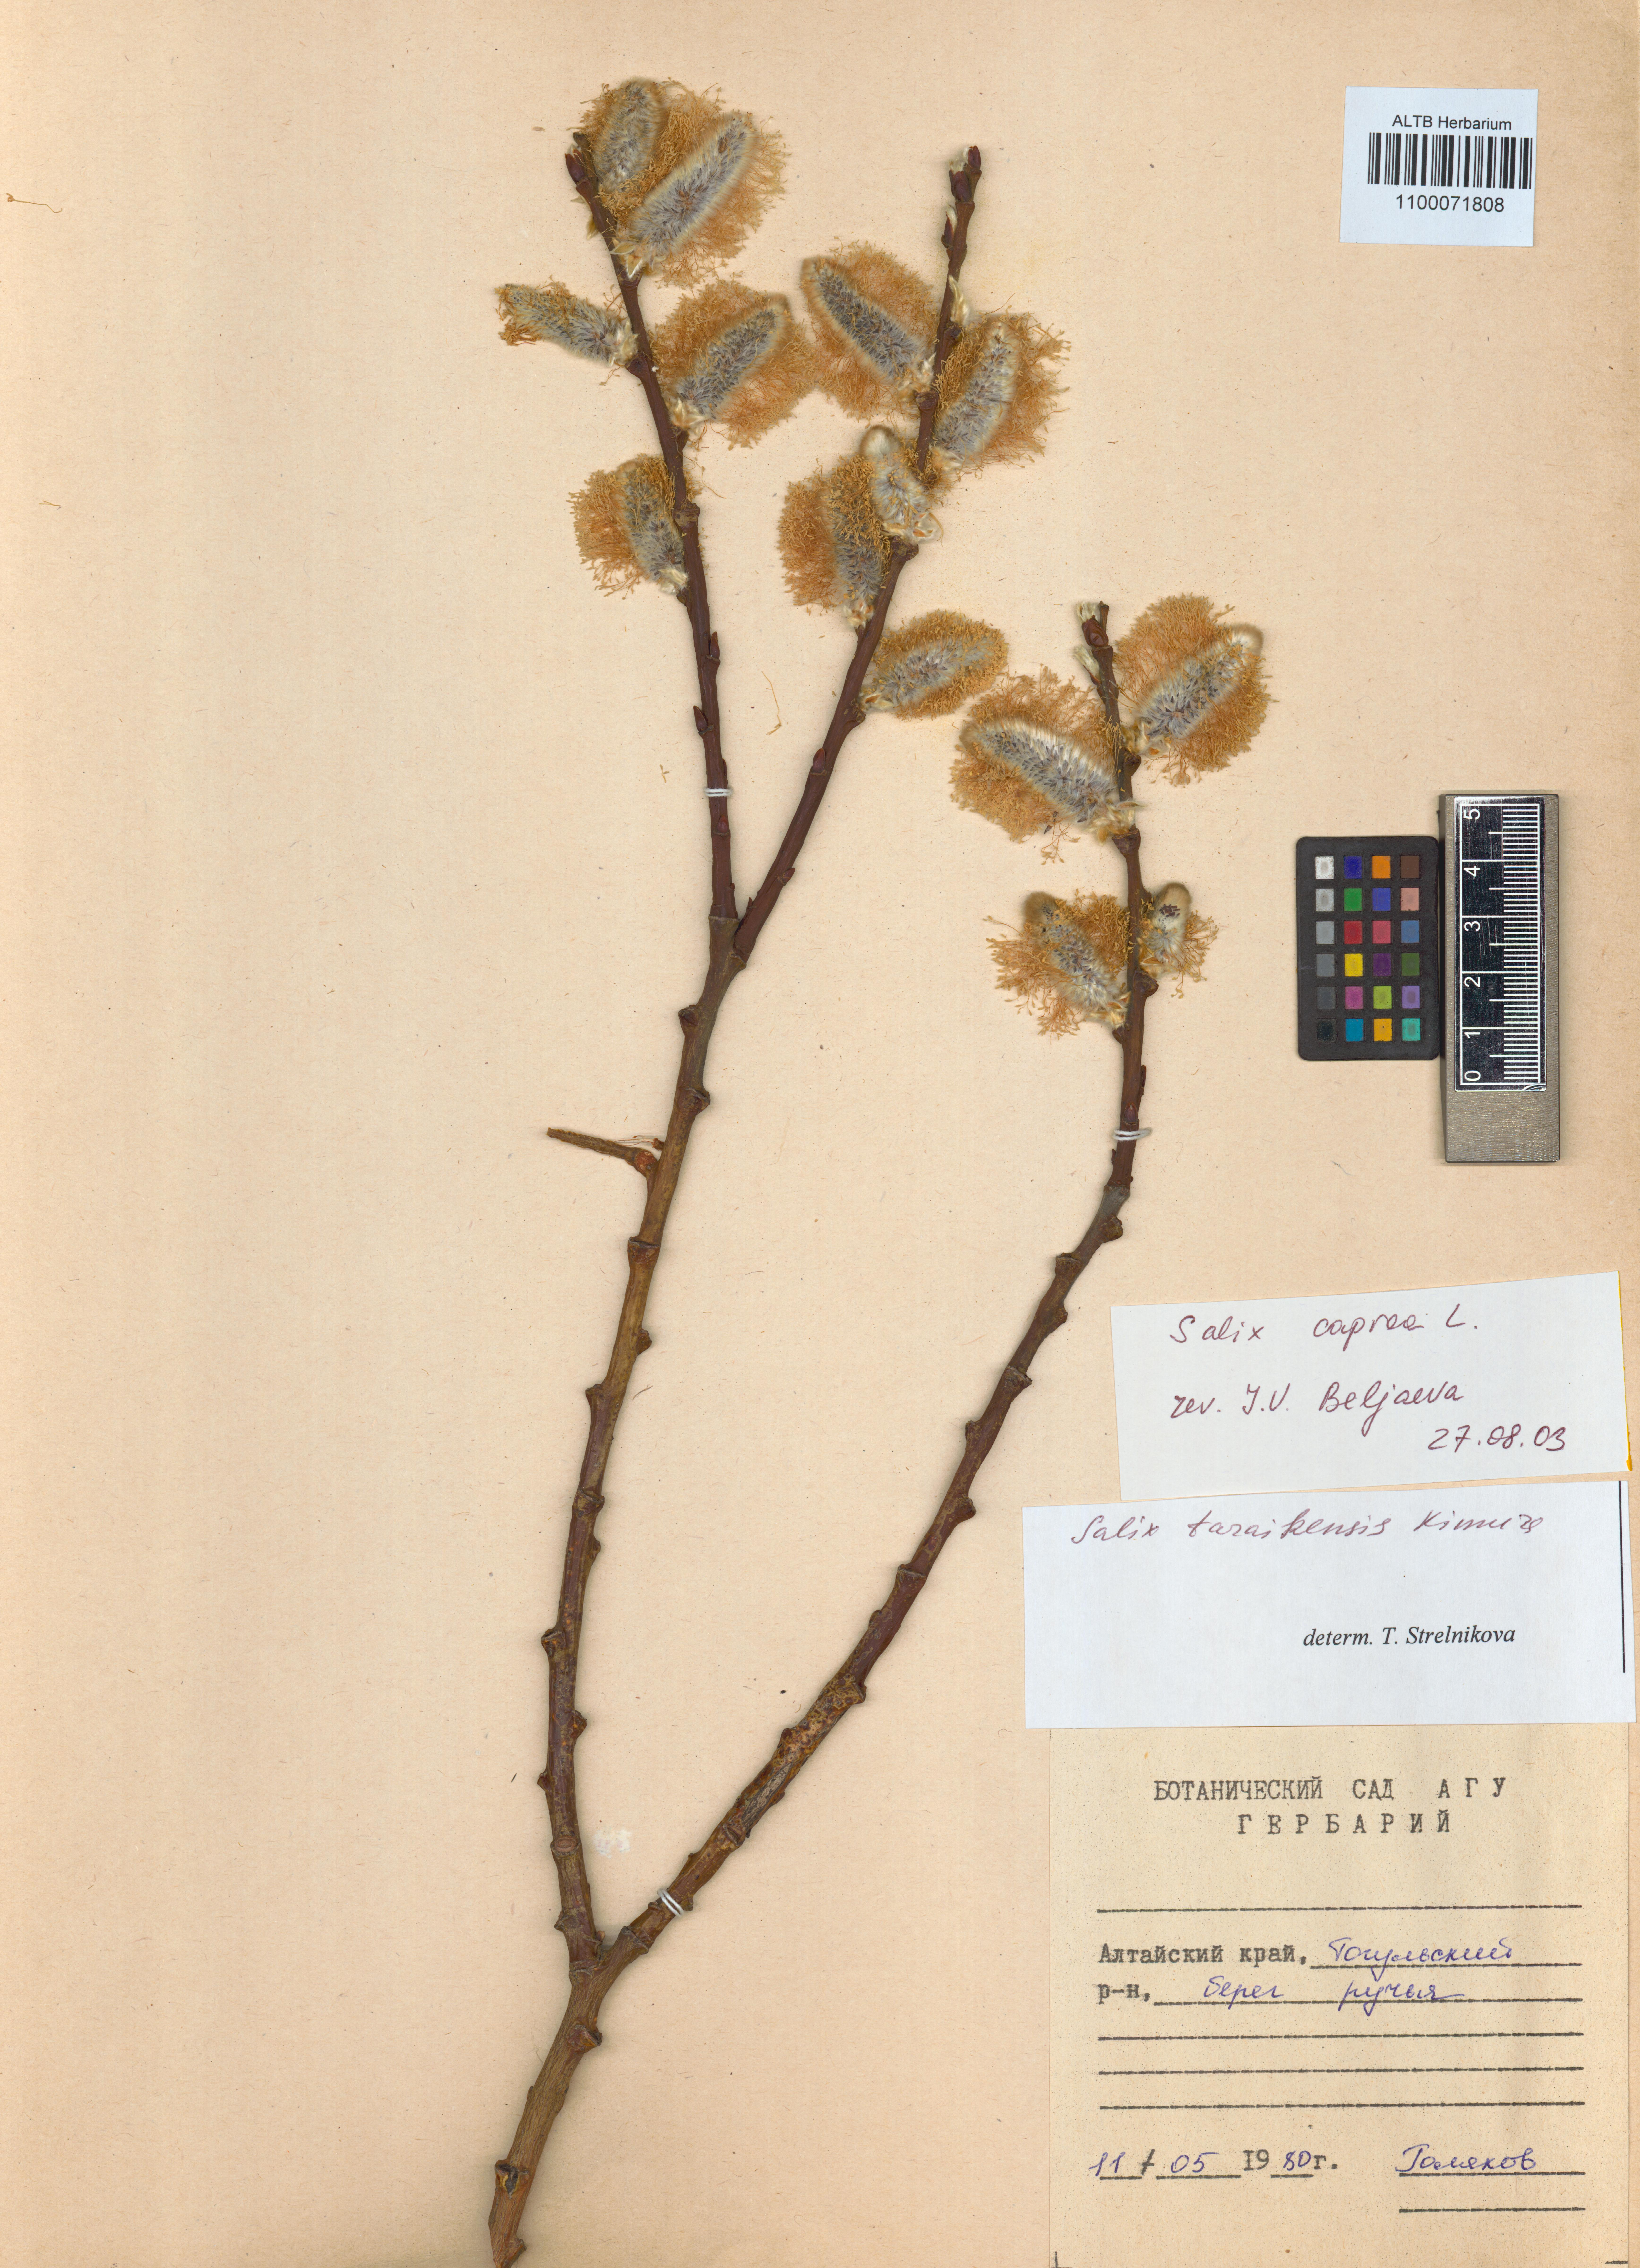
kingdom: Plantae
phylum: Tracheophyta
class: Magnoliopsida
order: Malpighiales
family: Salicaceae
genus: Salix
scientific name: Salix caprea
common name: Goat willow
